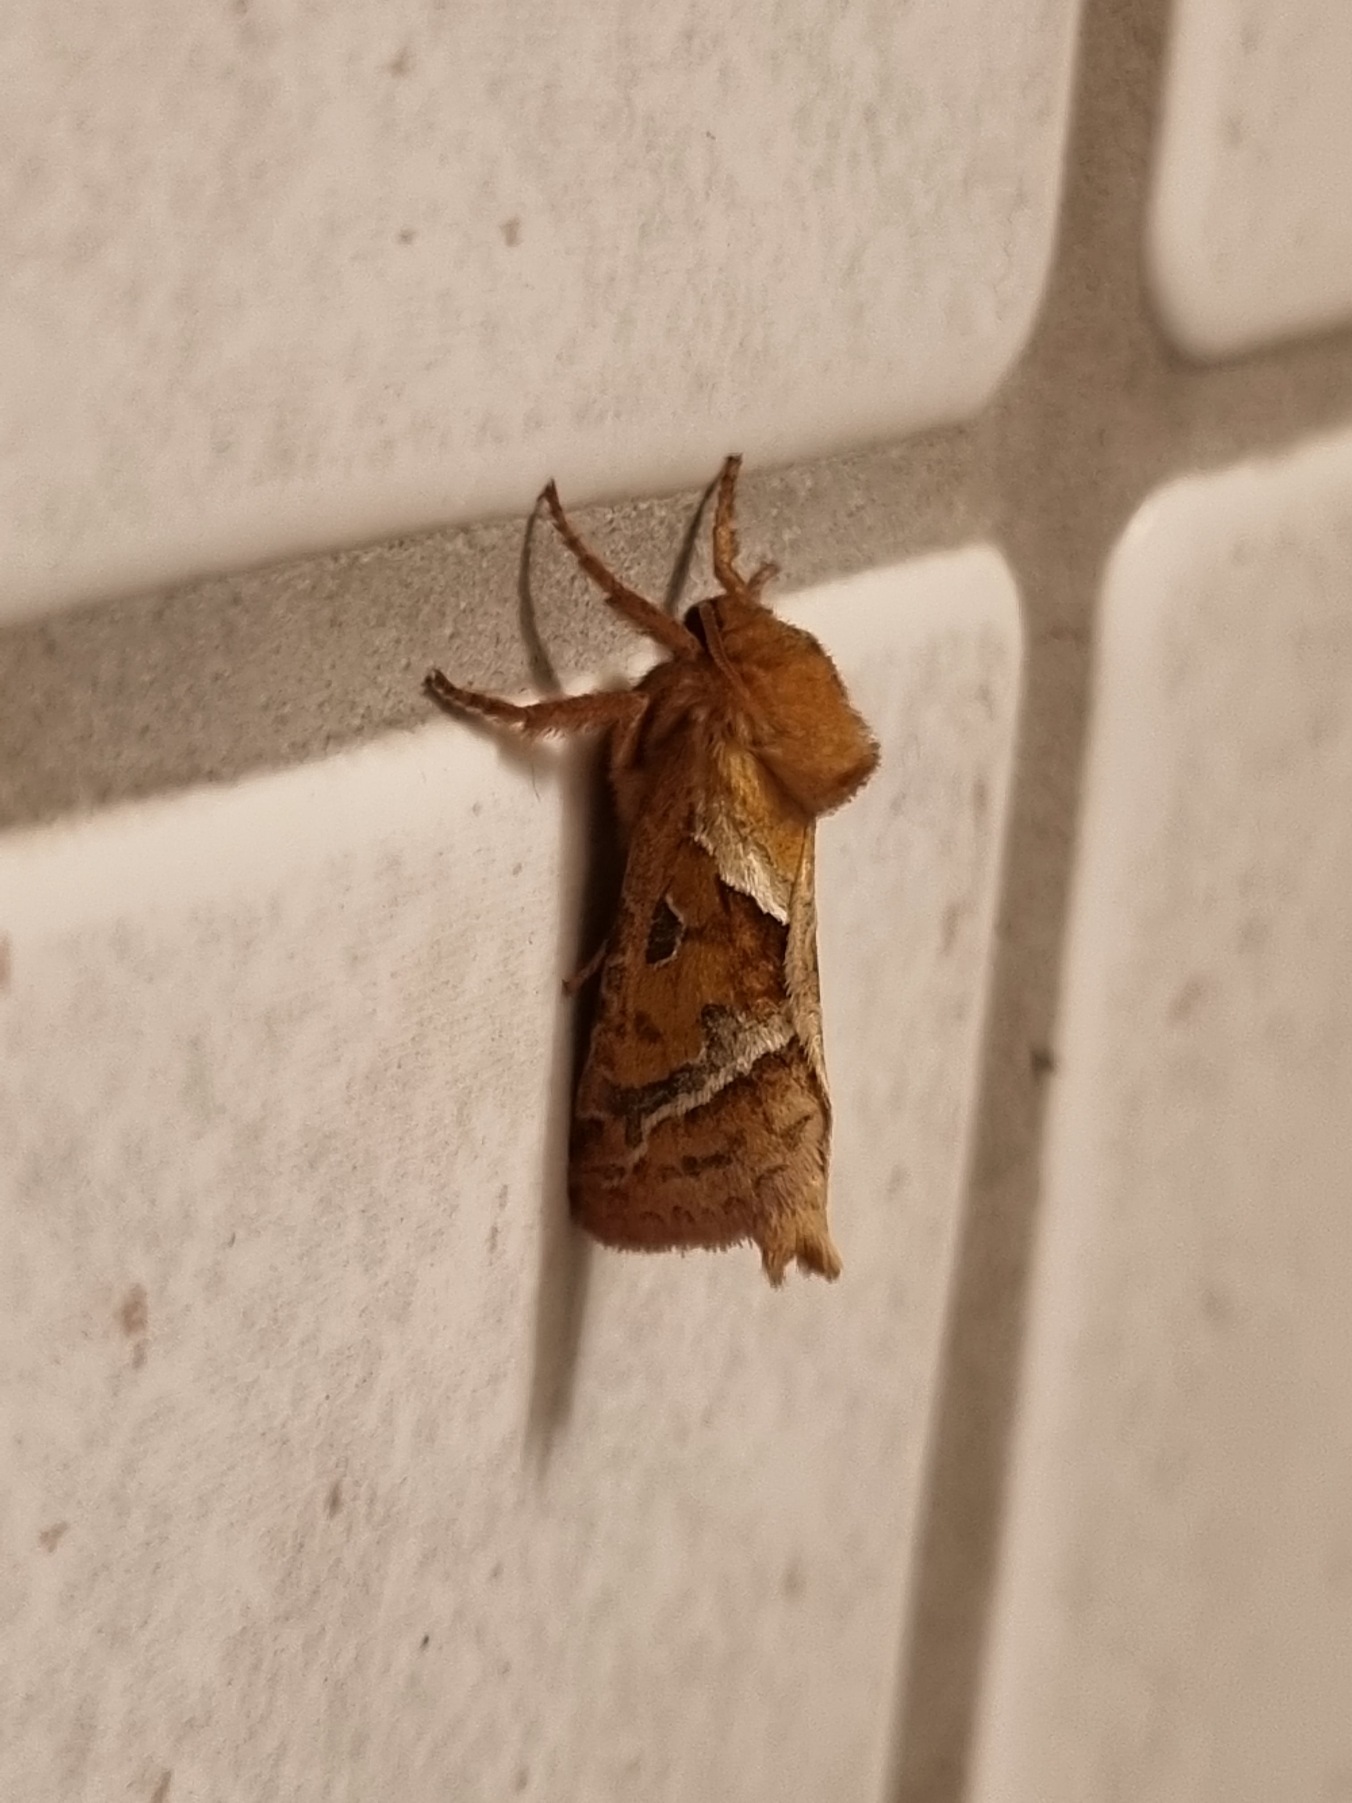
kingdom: Animalia
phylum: Arthropoda
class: Insecta
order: Lepidoptera
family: Hepialidae
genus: Triodia
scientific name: Triodia sylvina
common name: Skræpperodæder
